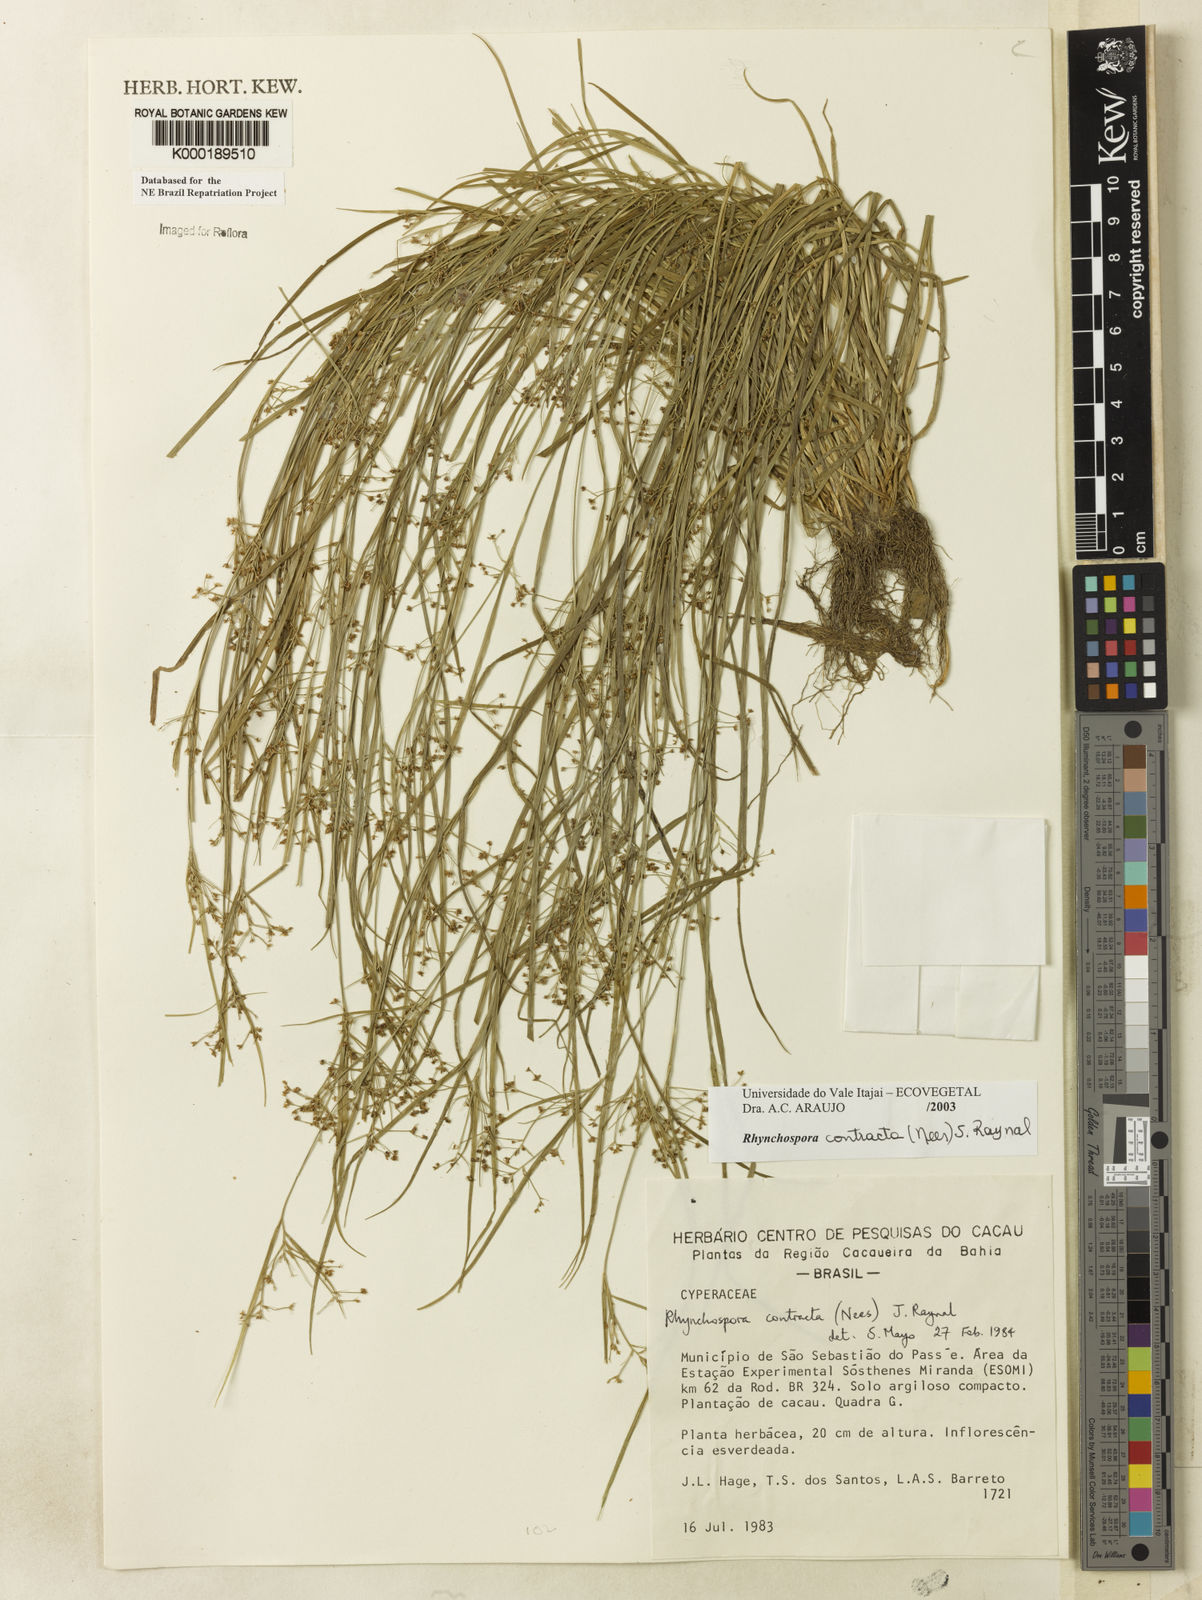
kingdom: Plantae
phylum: Tracheophyta
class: Liliopsida
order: Poales
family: Cyperaceae
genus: Rhynchospora
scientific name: Rhynchospora contracta
